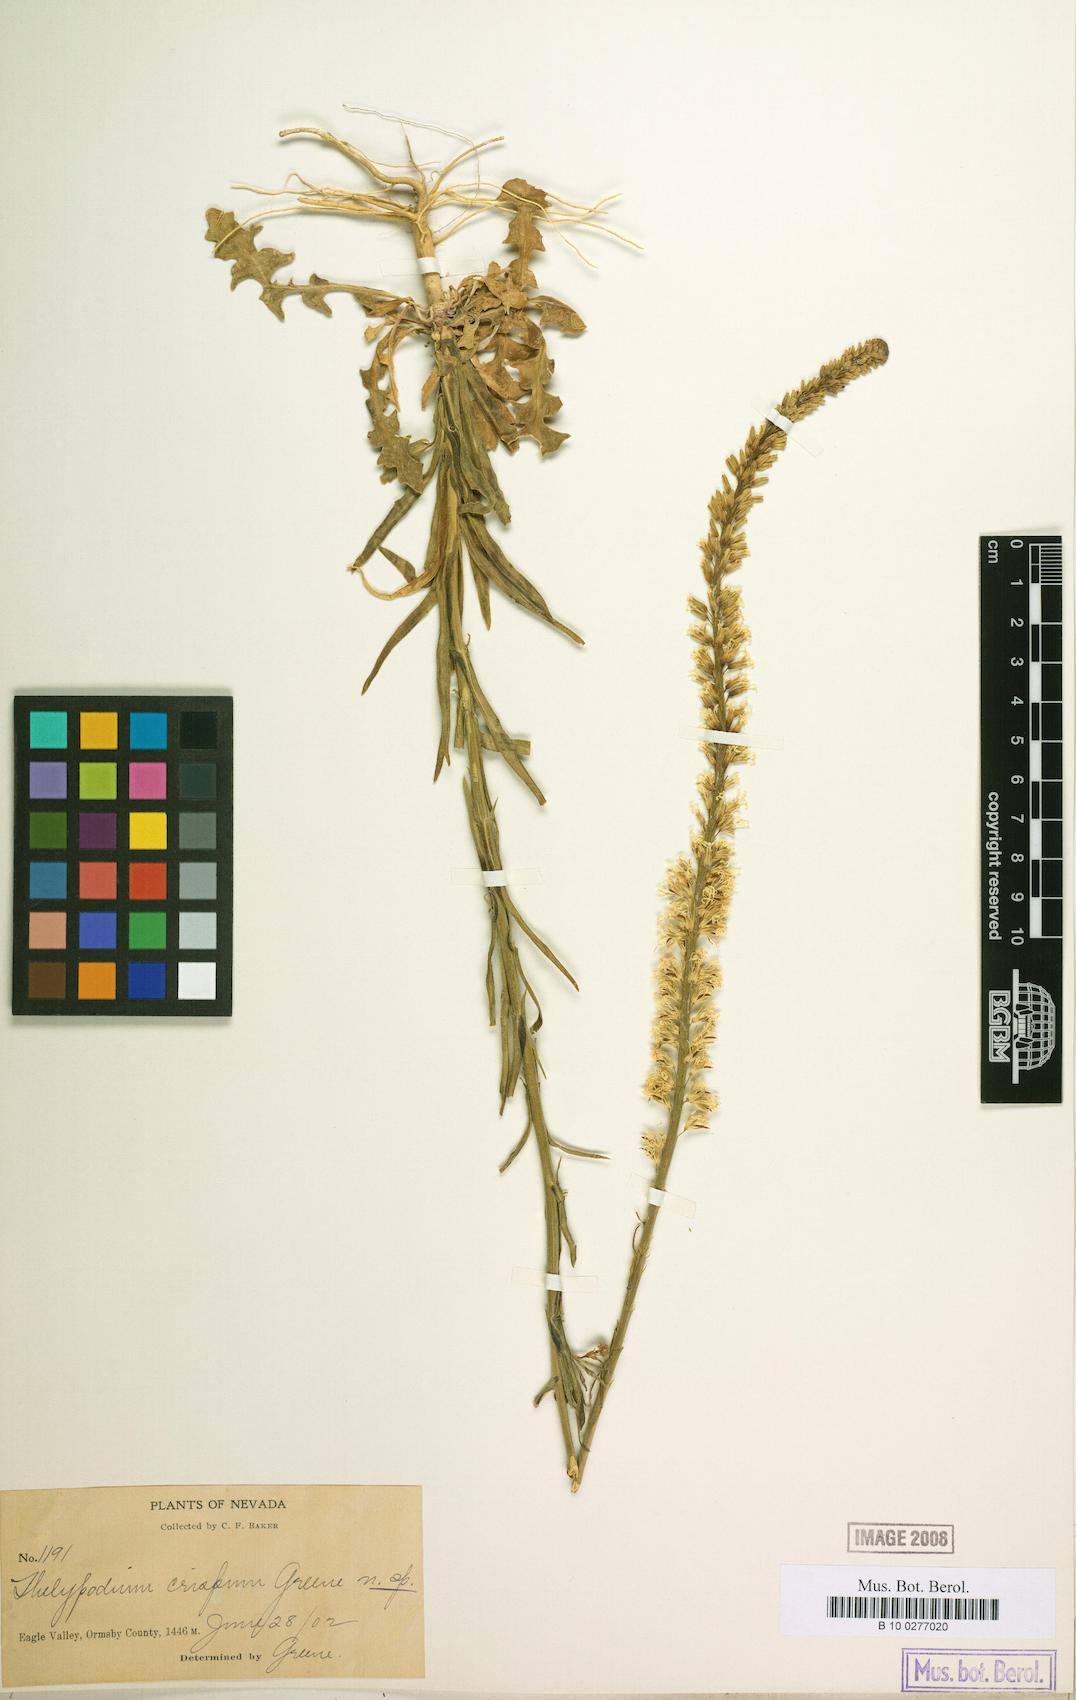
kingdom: Plantae
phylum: Tracheophyta
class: Magnoliopsida
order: Brassicales
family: Brassicaceae
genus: Thelypodium
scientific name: Thelypodium crispum
